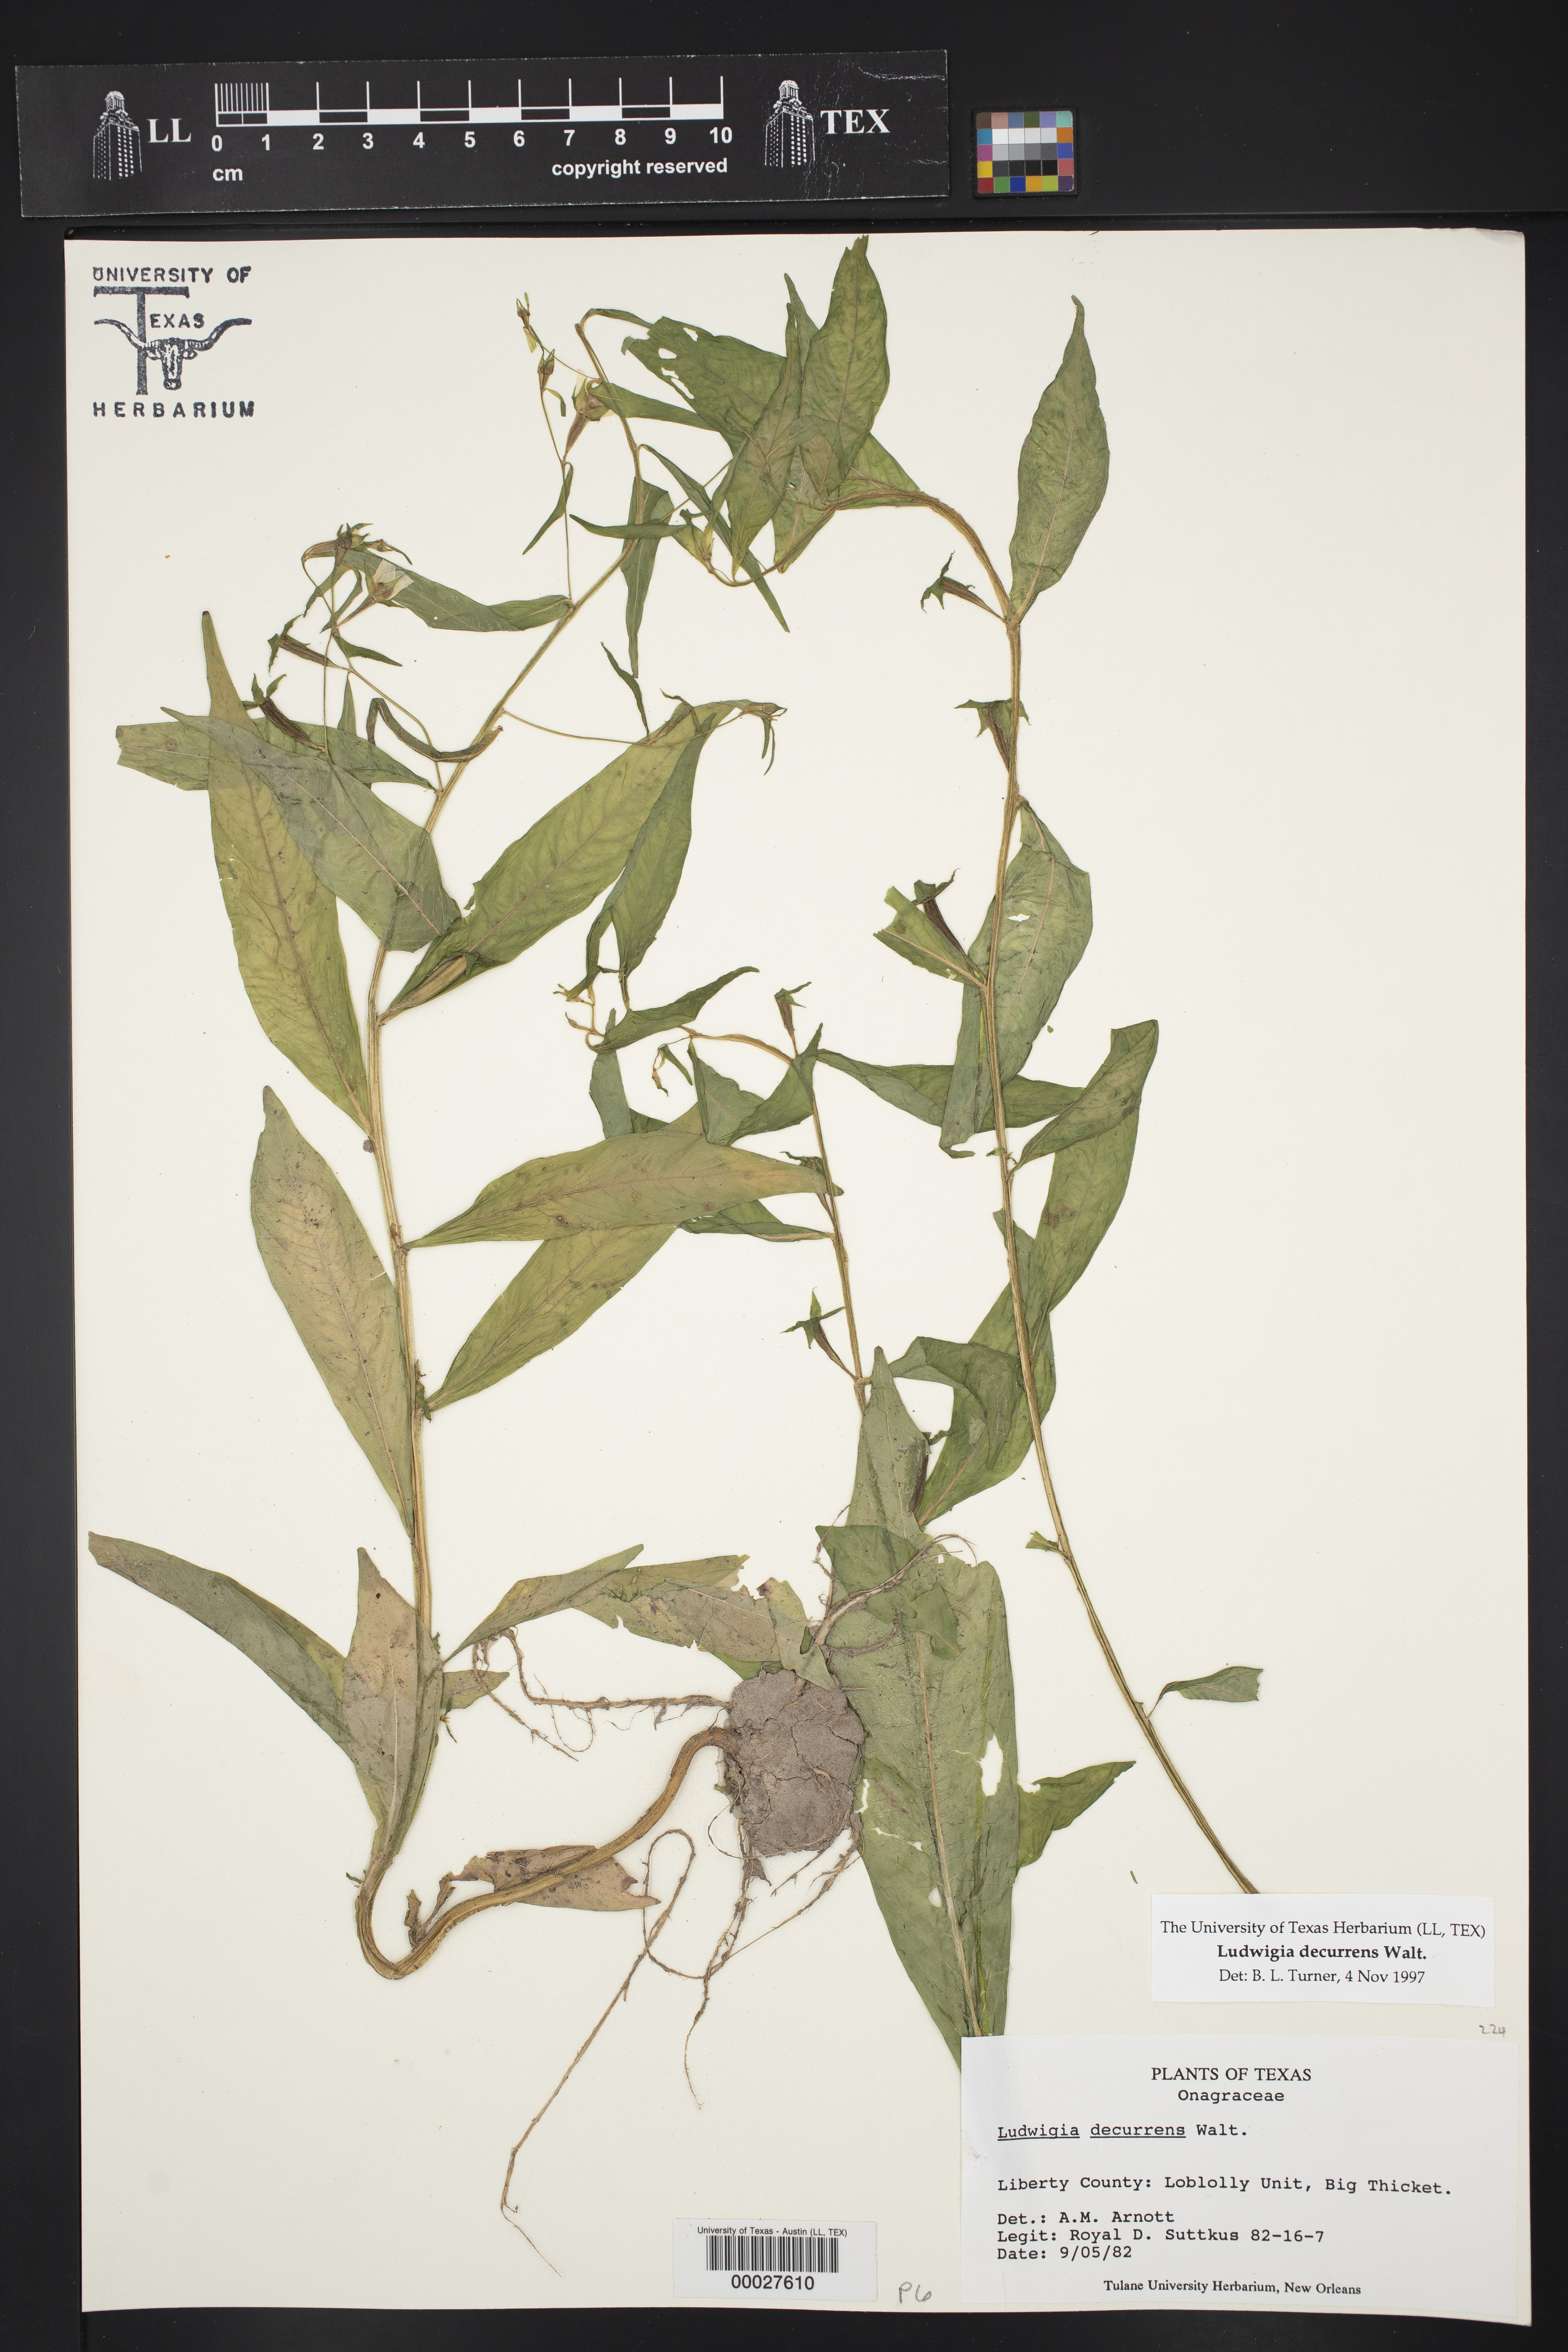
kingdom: Plantae
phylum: Tracheophyta
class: Magnoliopsida
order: Myrtales
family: Onagraceae
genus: Ludwigia
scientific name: Ludwigia decurrens
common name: Winged water-primrose
